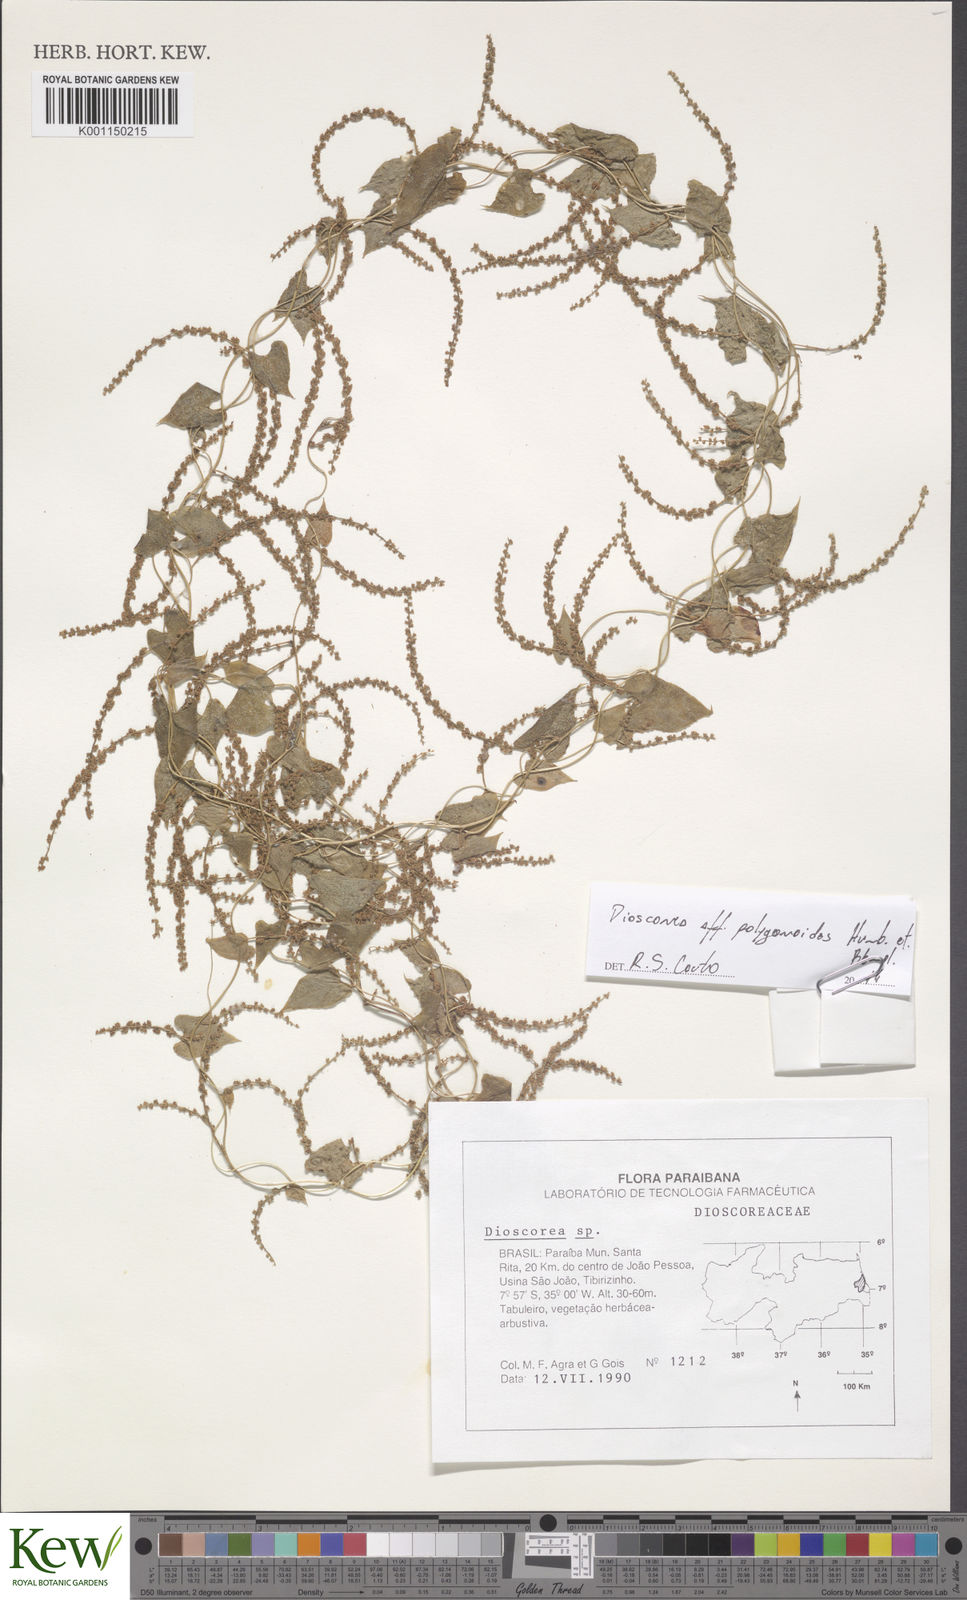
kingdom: Plantae
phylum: Tracheophyta
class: Liliopsida
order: Dioscoreales
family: Dioscoreaceae
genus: Dioscorea
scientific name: Dioscorea martiana
